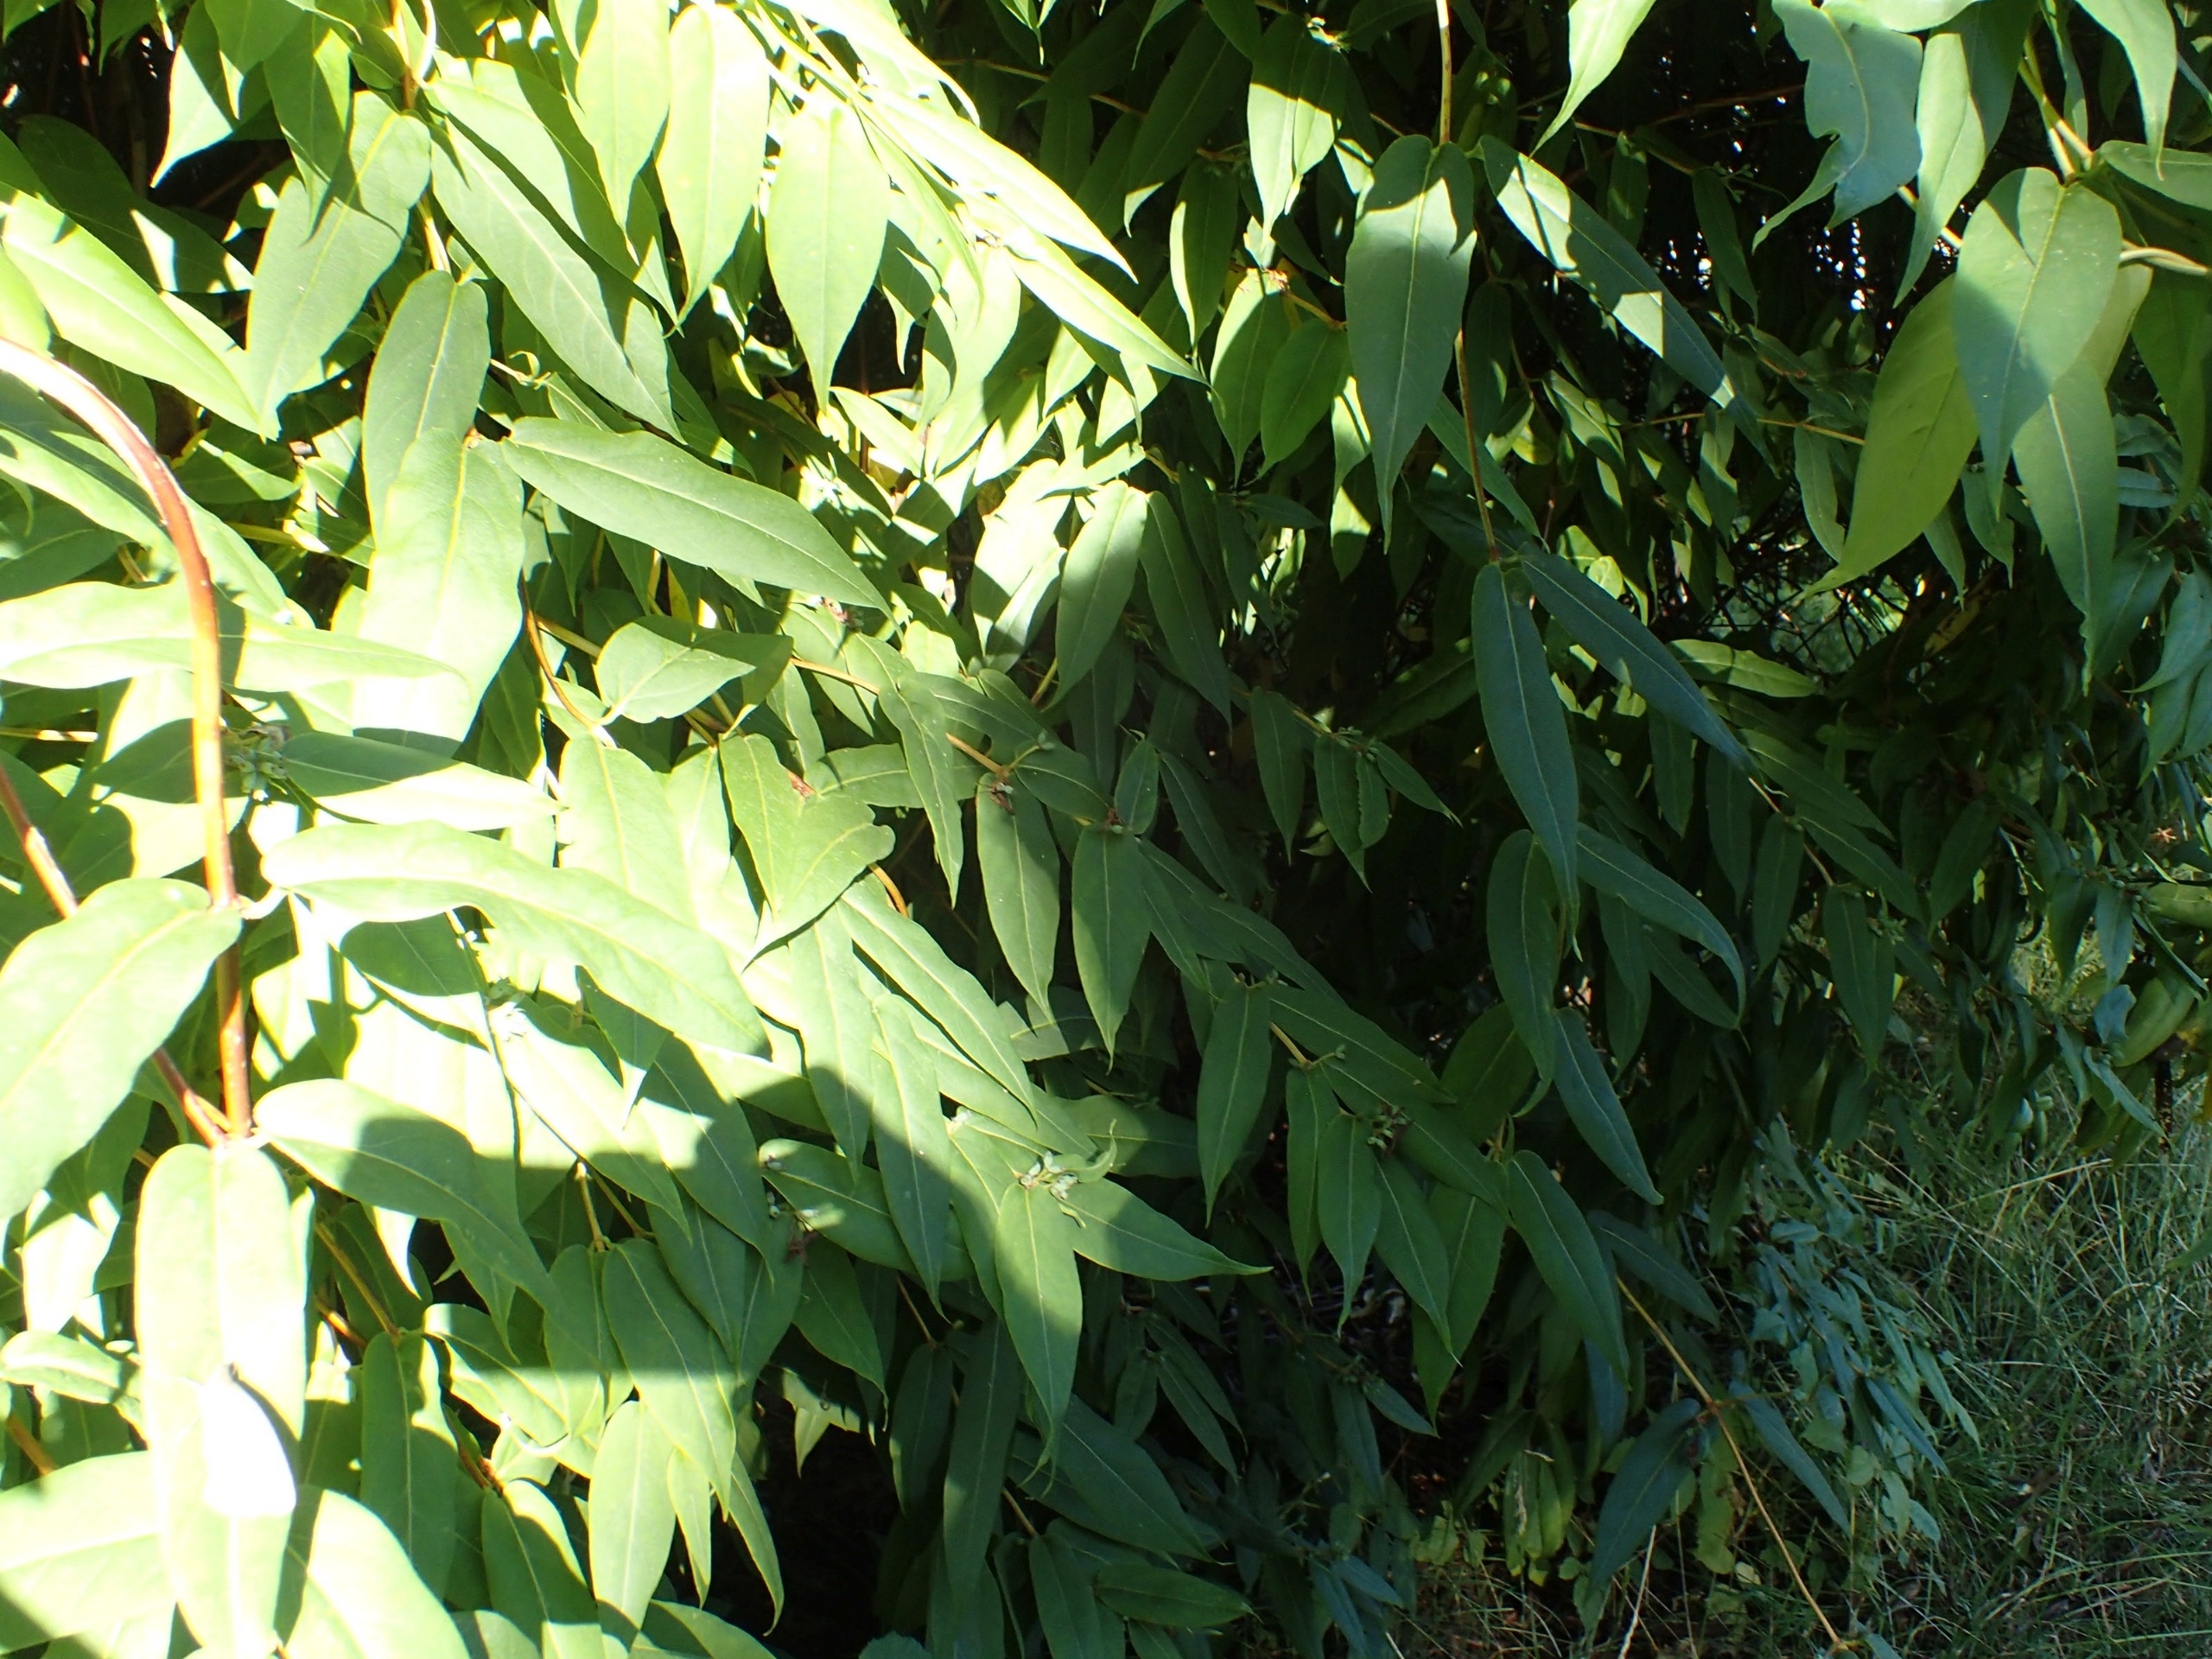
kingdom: Plantae
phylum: Tracheophyta
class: Magnoliopsida
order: Dipsacales
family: Caprifoliaceae
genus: Lonicera
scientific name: Lonicera acuminata
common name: Henrys gedeblad
